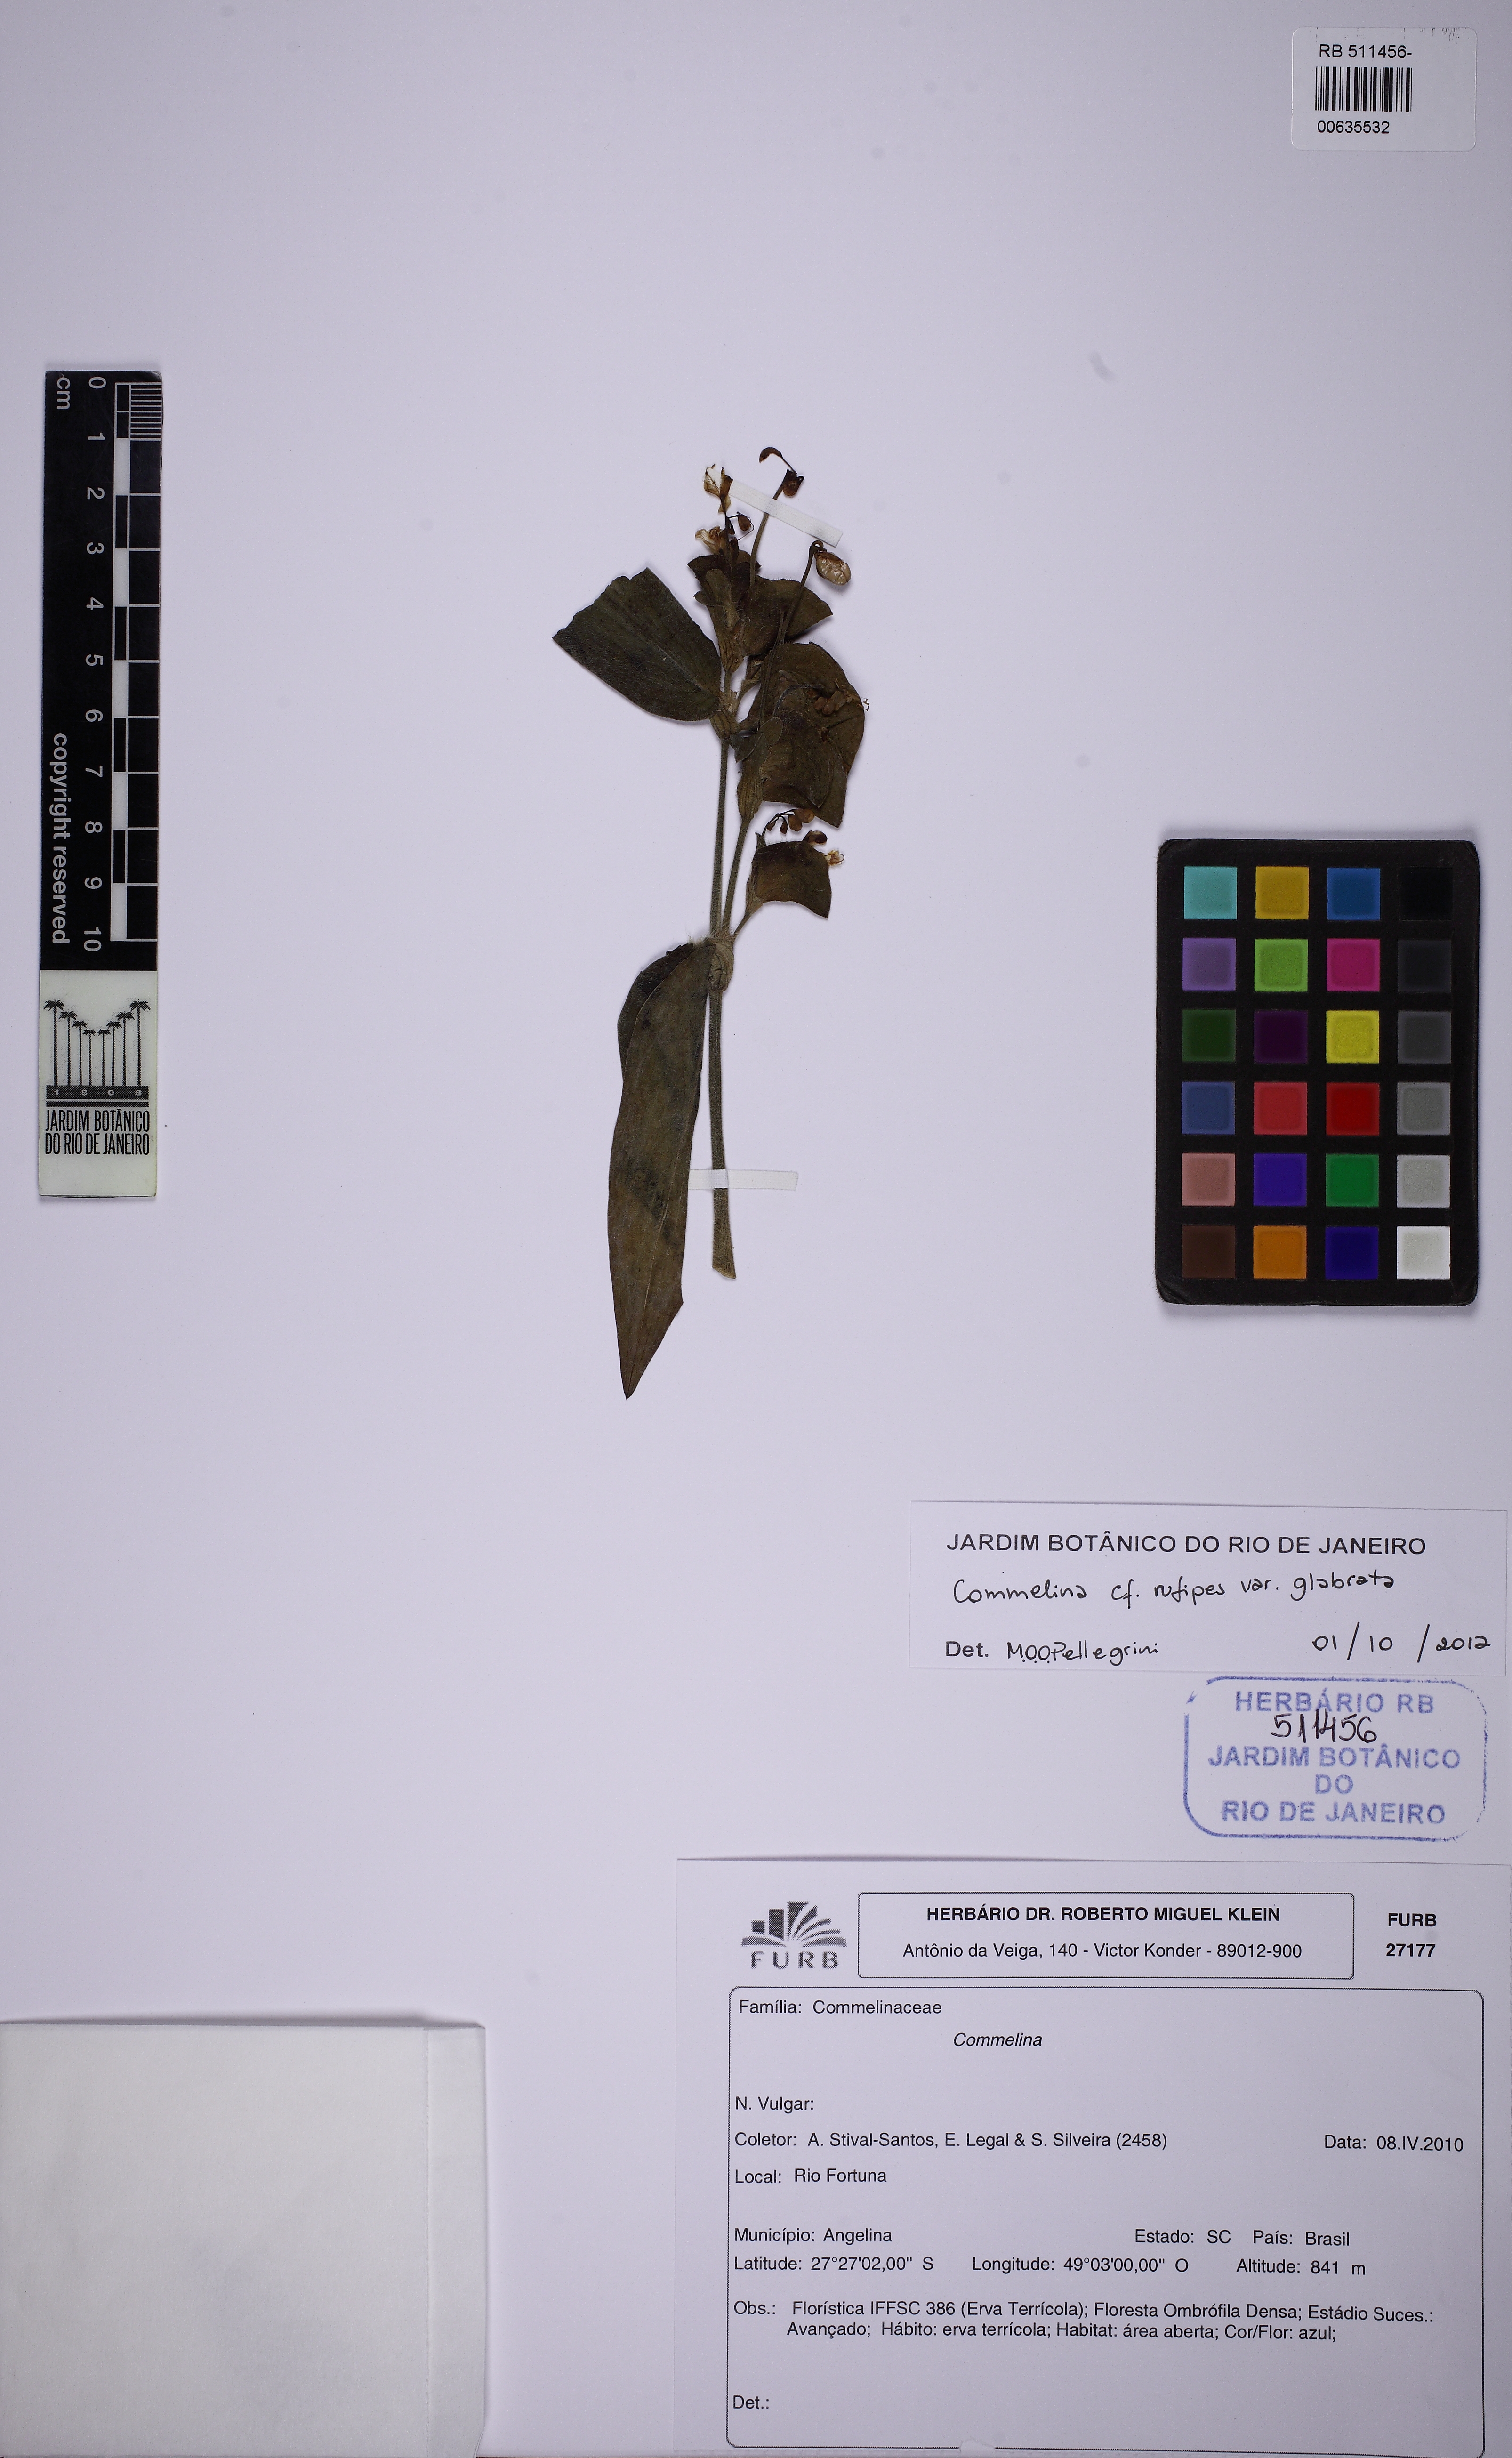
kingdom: Plantae
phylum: Tracheophyta
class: Liliopsida
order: Commelinales
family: Commelinaceae
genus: Commelina
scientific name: Commelina obliqua
